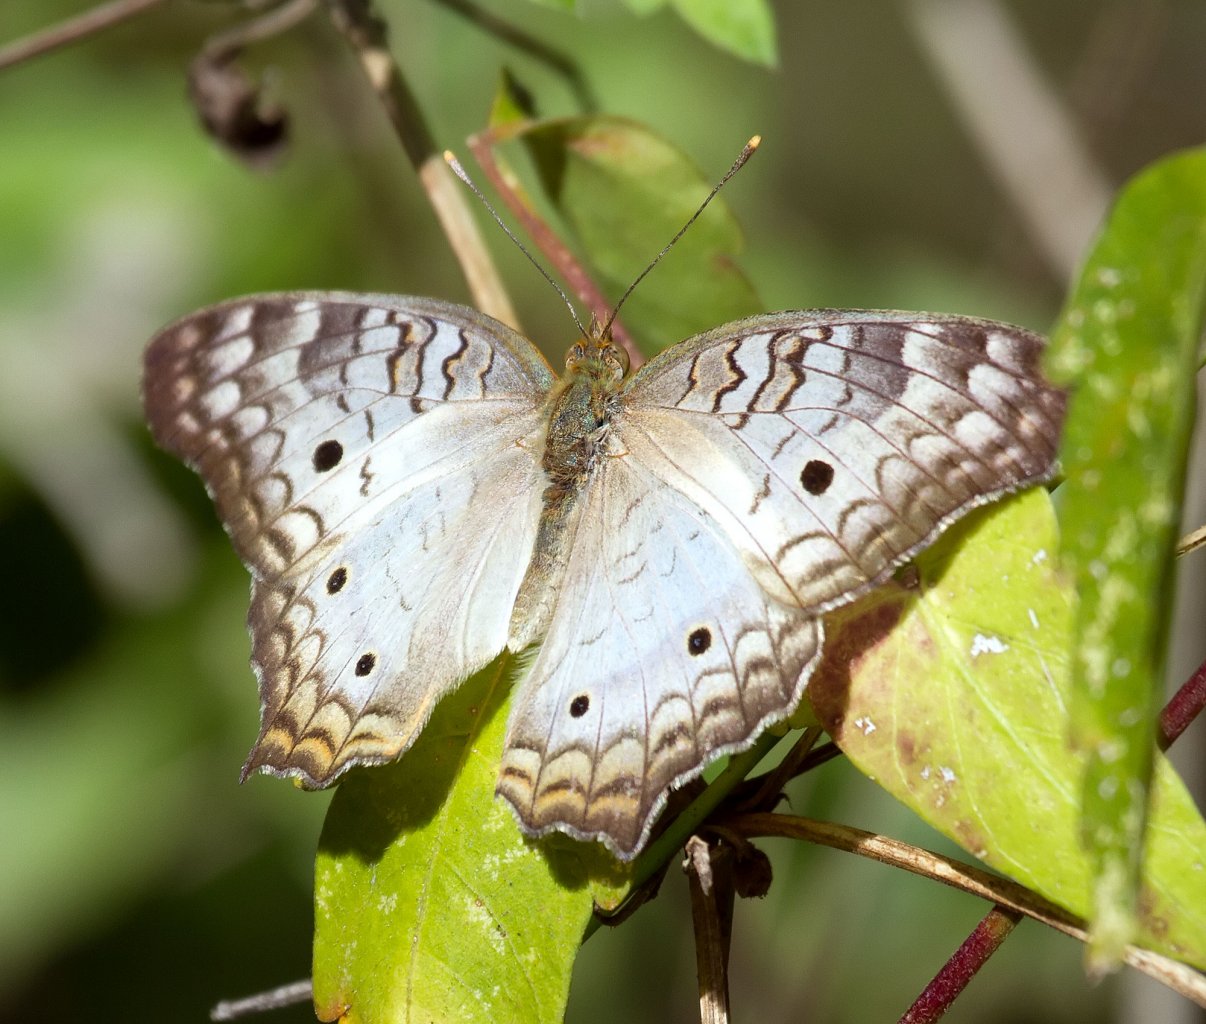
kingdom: Animalia
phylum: Arthropoda
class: Insecta
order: Lepidoptera
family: Nymphalidae
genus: Anartia
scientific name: Anartia jatrophae
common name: White Peacock
